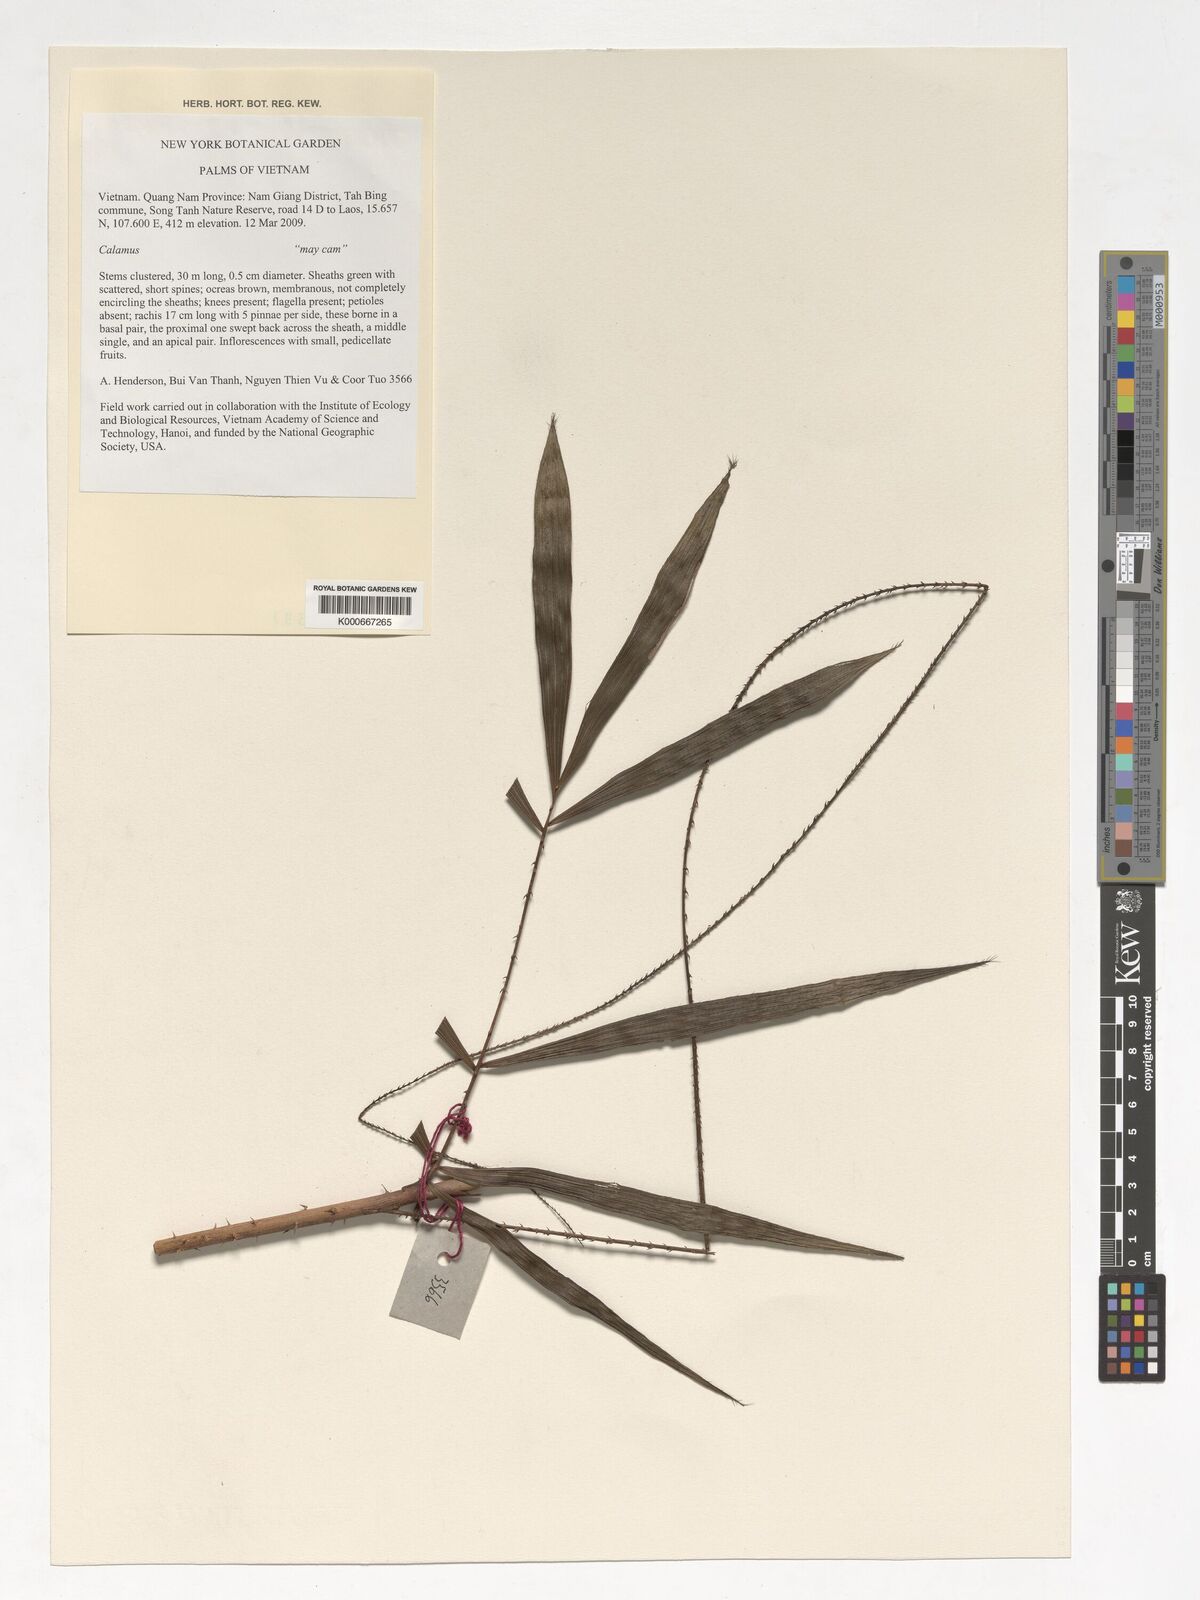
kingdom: Plantae
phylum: Tracheophyta
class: Liliopsida
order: Arecales
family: Arecaceae
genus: Calamus
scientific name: Calamus
